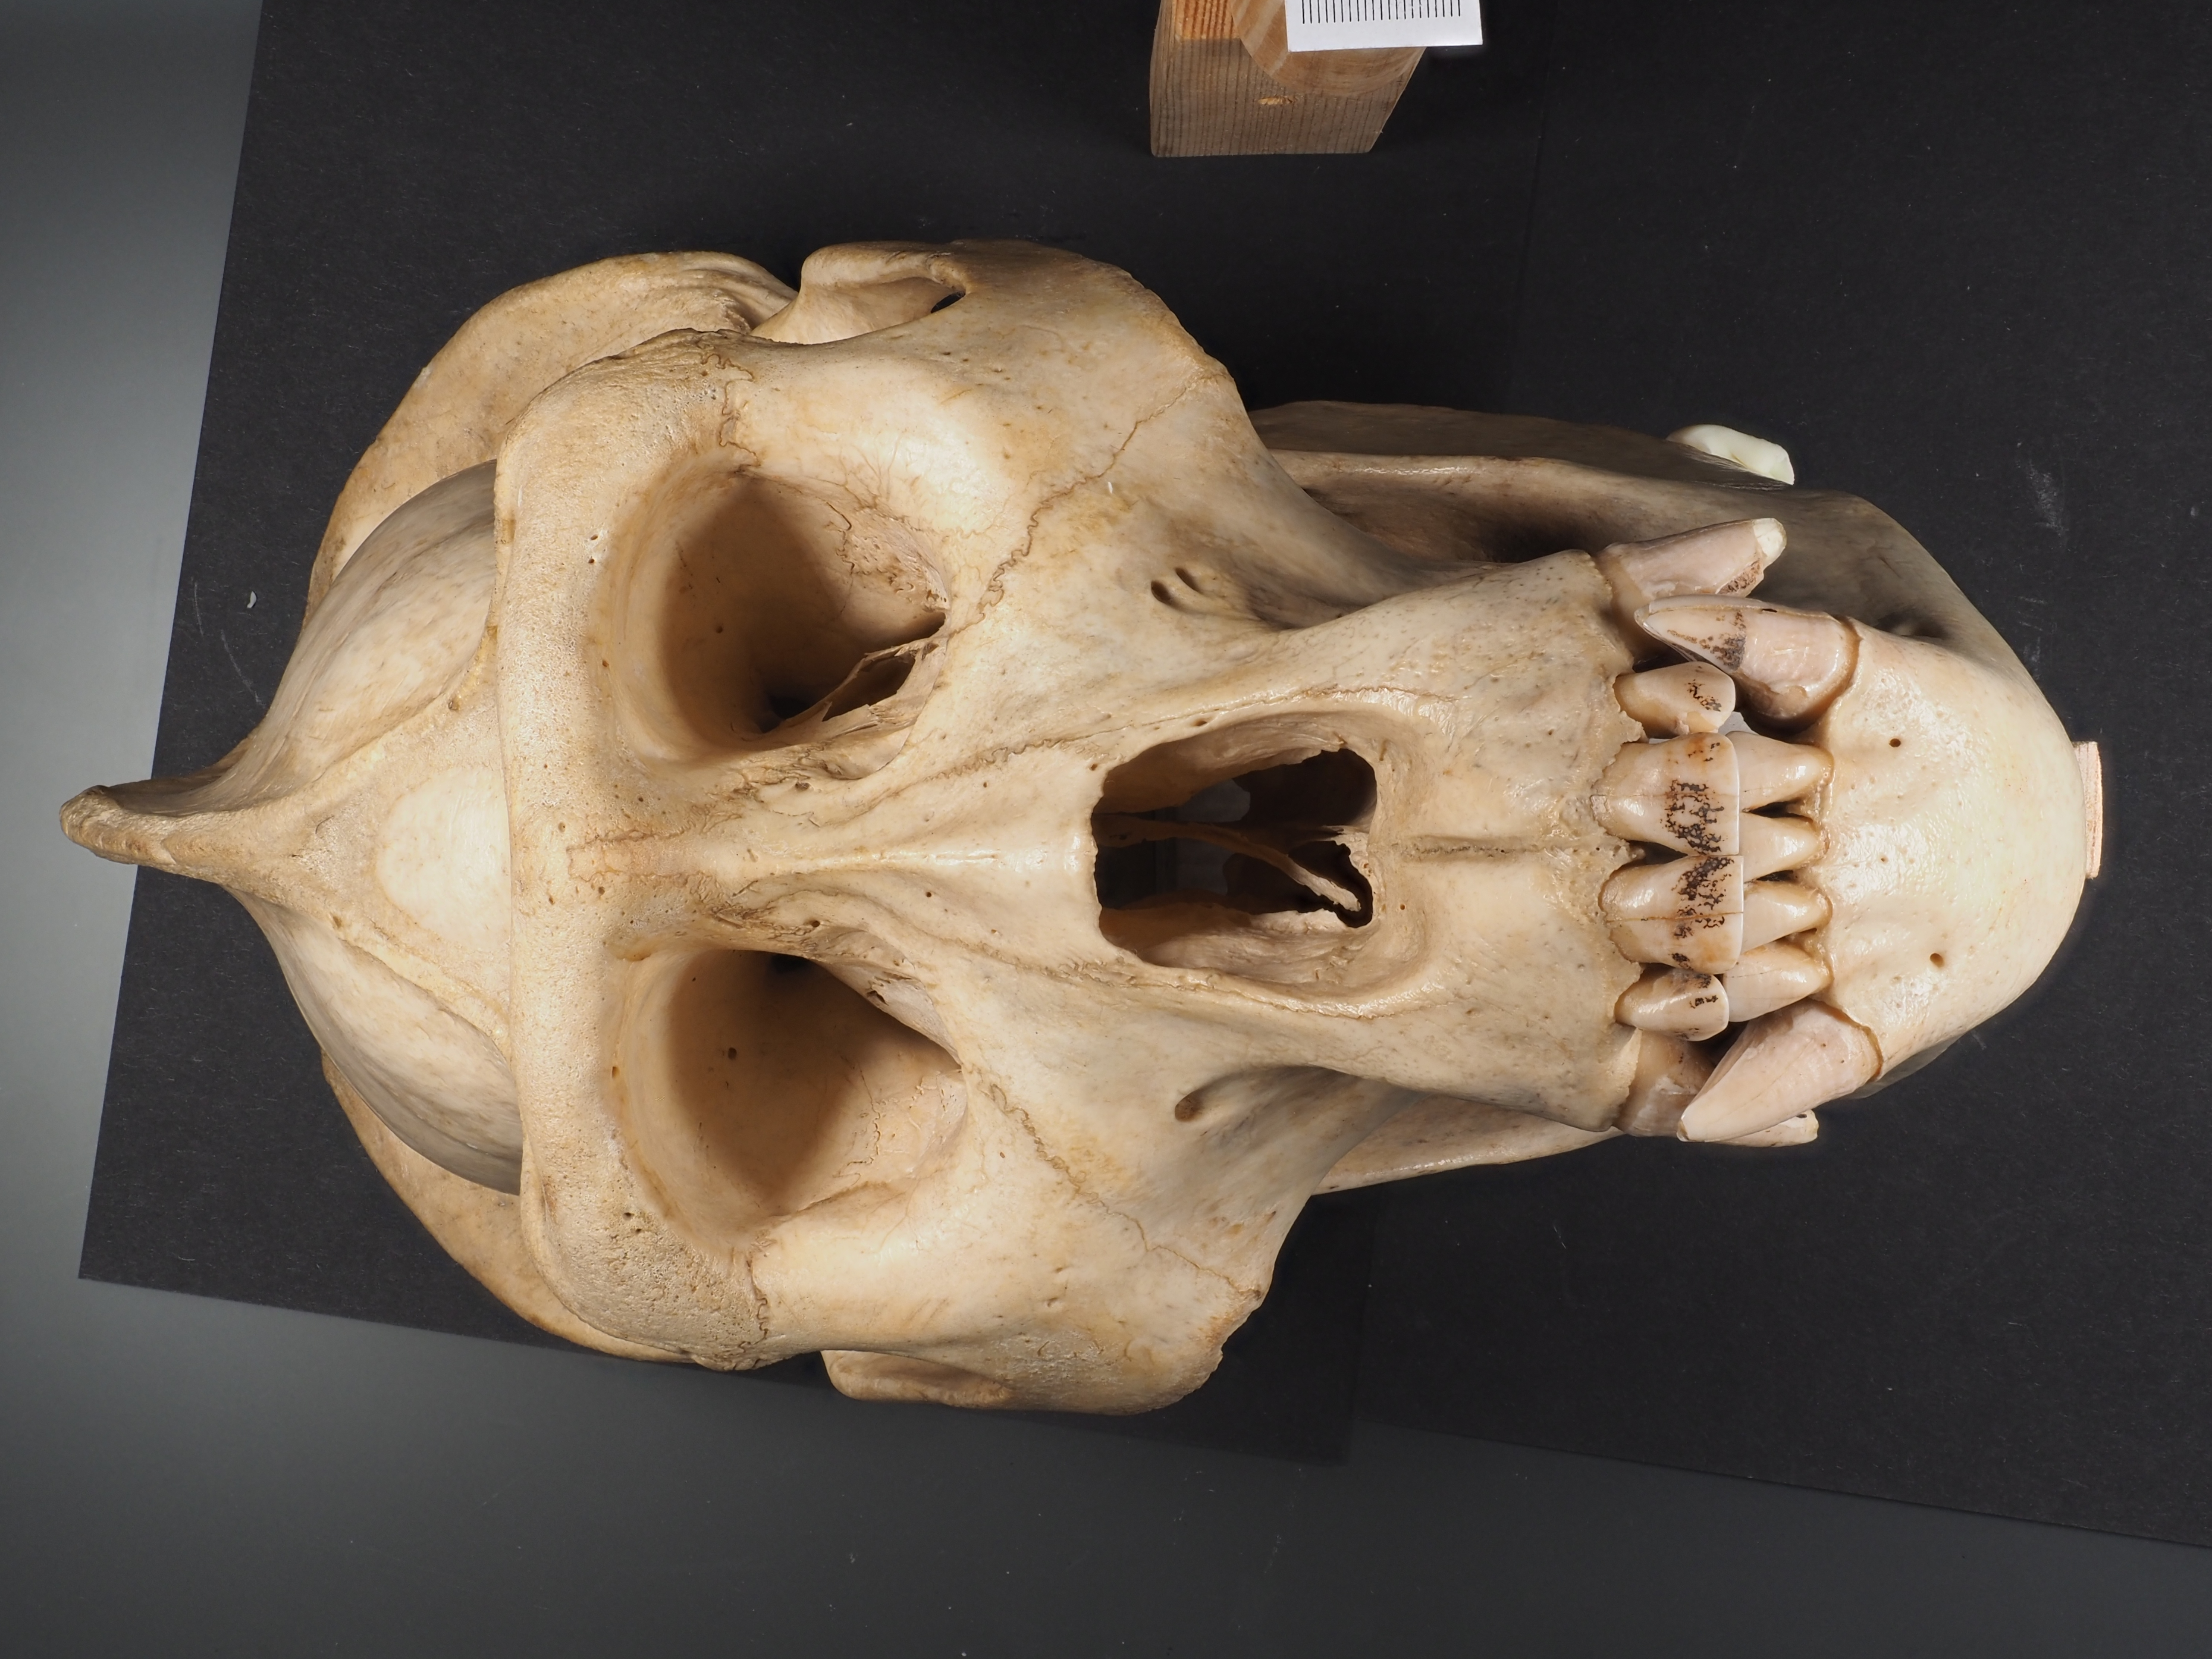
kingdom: Animalia
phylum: Chordata
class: Mammalia
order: Primates
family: Hominidae
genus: Pongo
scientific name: Pongo pygmaeus
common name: Bornean orangutan
